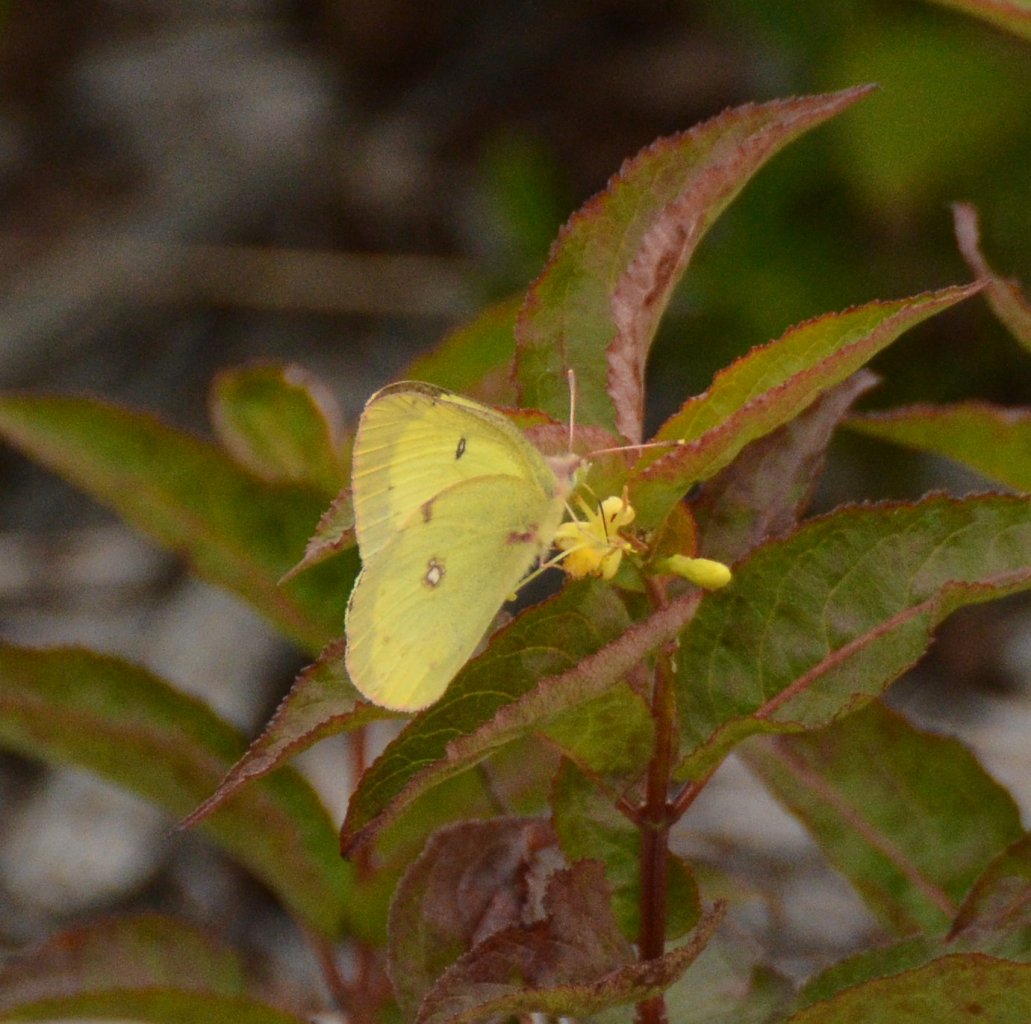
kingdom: Animalia
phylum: Arthropoda
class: Insecta
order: Lepidoptera
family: Pieridae
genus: Colias
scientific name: Colias interior
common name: Pink-edged Sulphur
